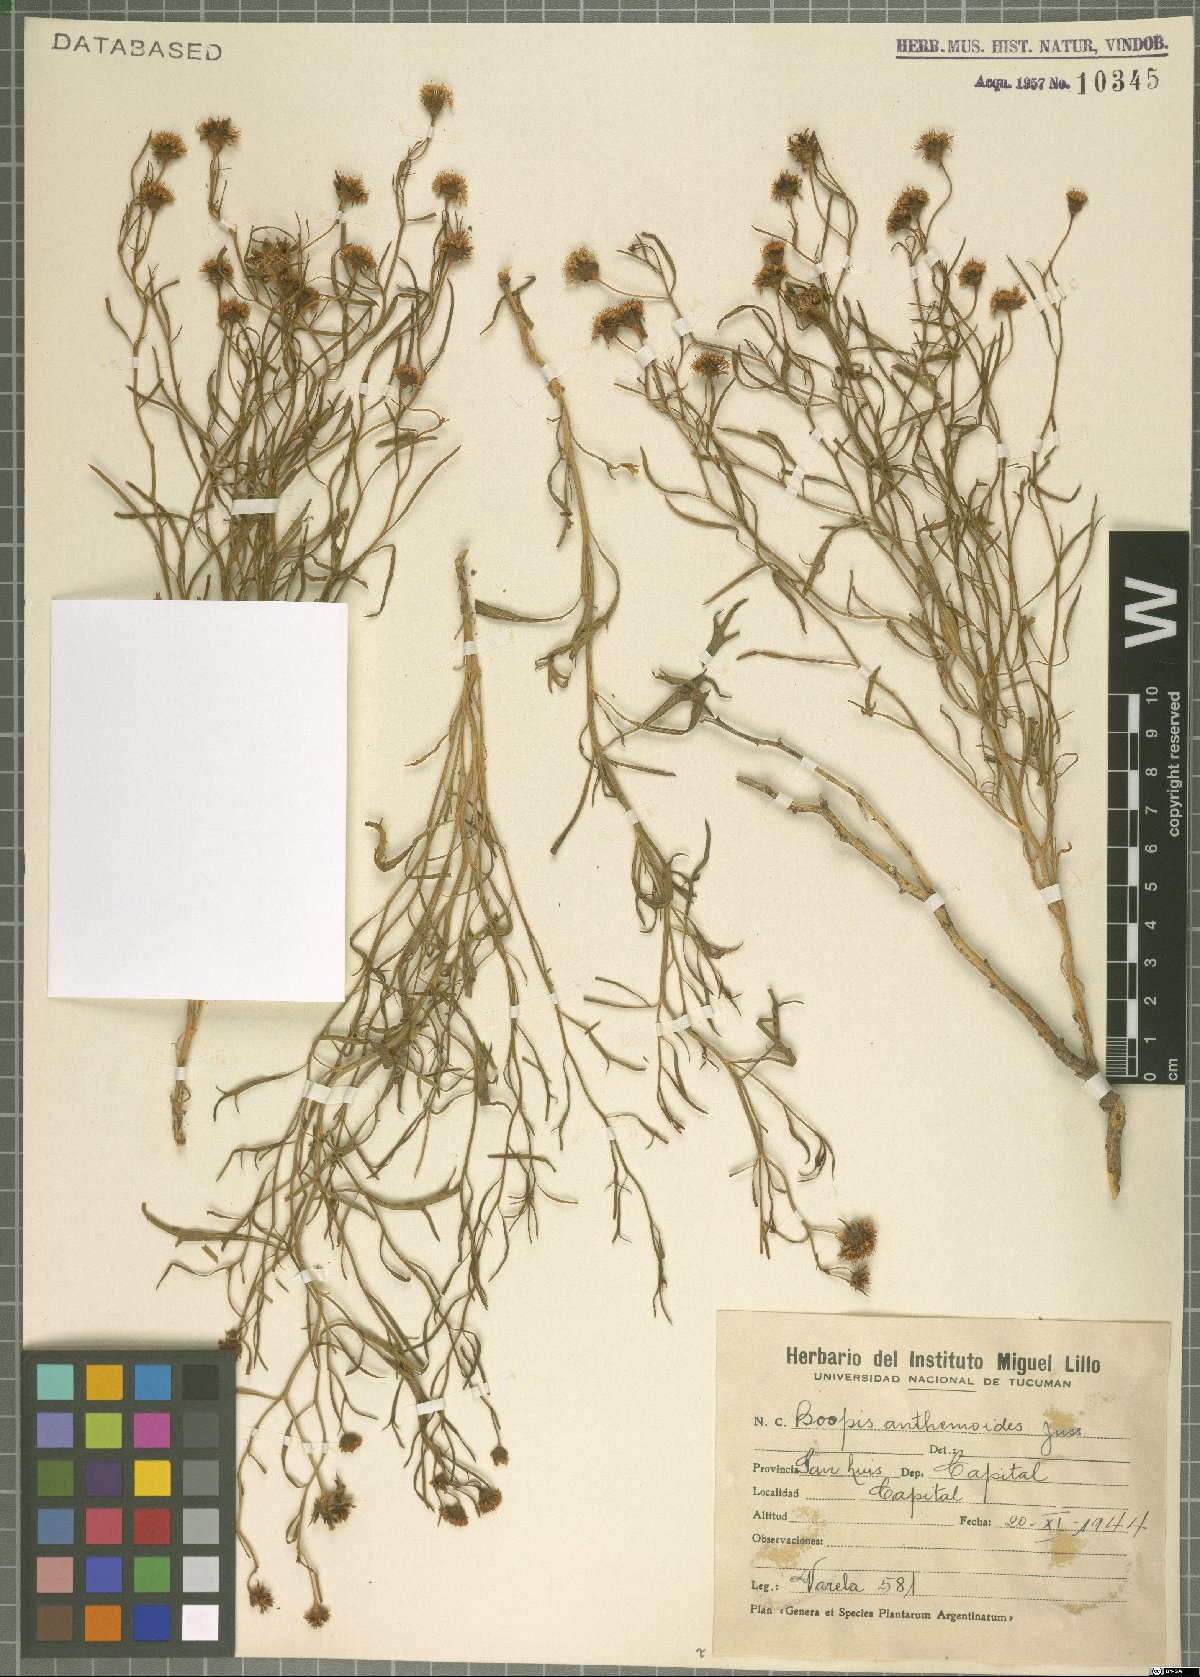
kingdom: Plantae
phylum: Tracheophyta
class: Magnoliopsida
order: Asterales
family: Calyceraceae
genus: Boopis
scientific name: Boopis anthemoides
